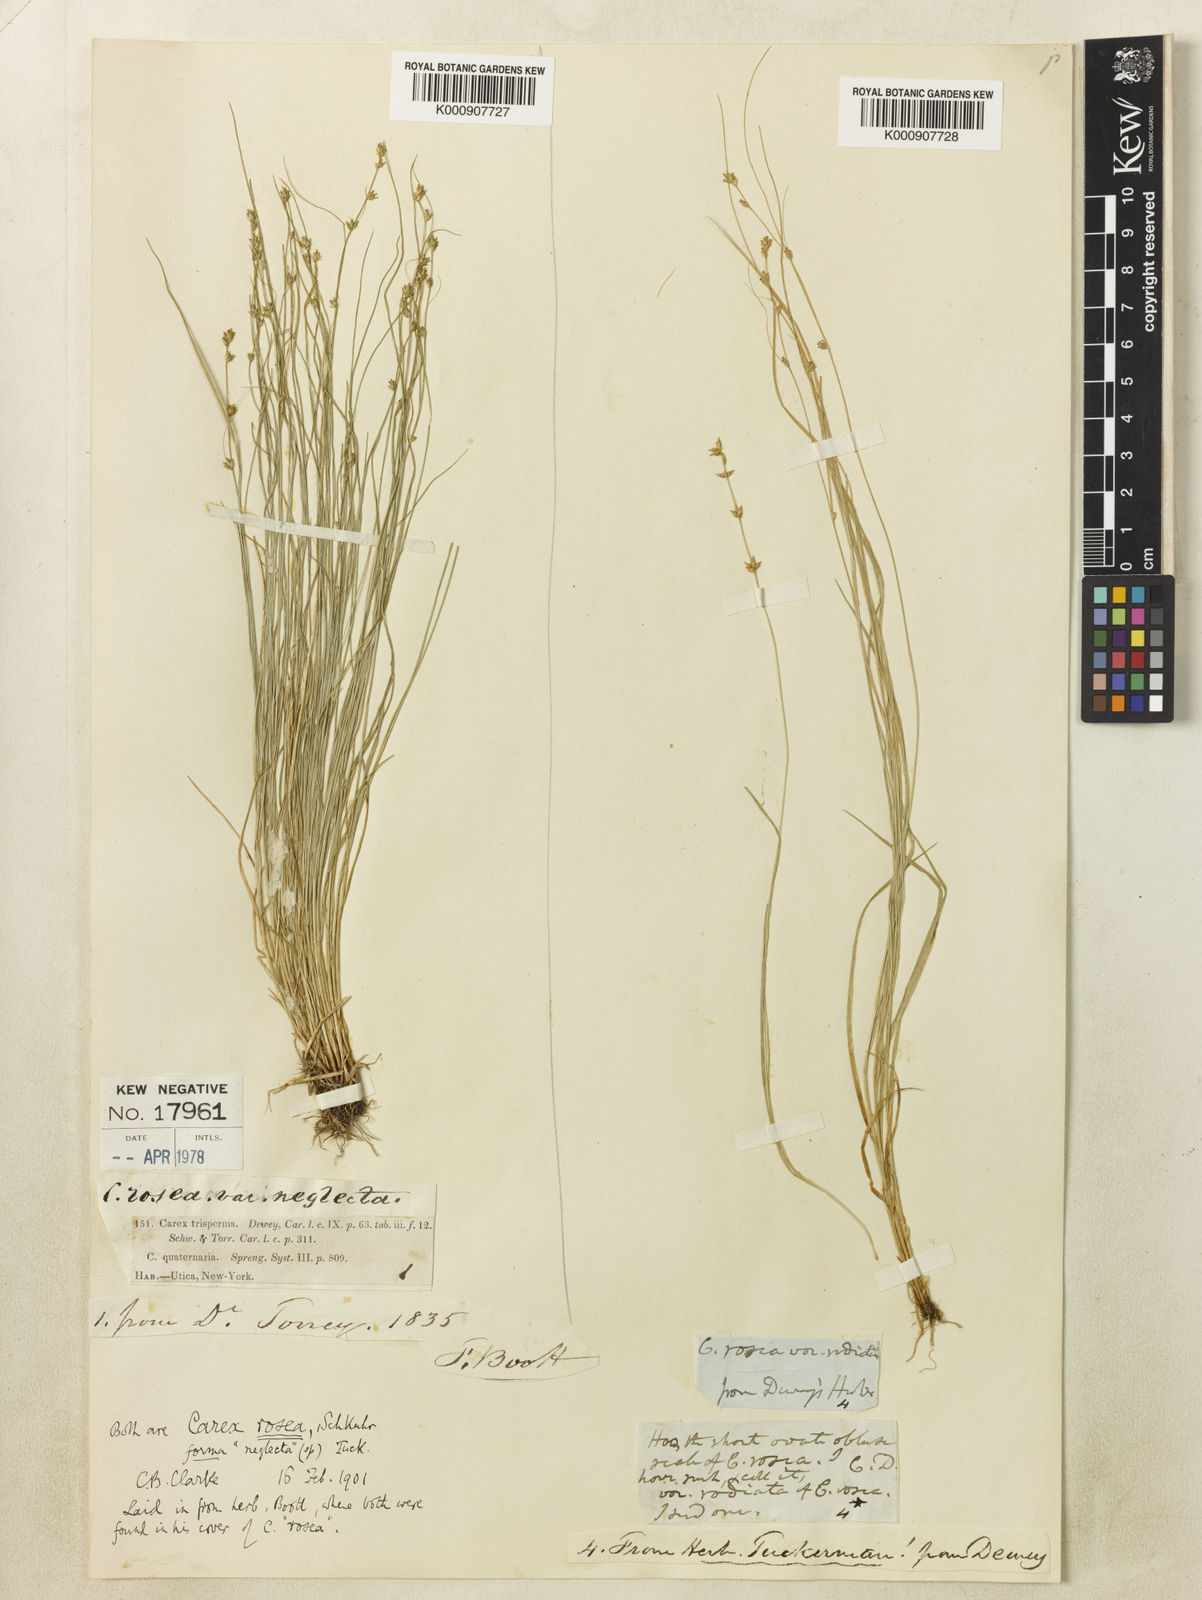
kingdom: Plantae
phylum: Tracheophyta
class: Liliopsida
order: Poales
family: Cyperaceae
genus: Carex
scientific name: Carex radiata
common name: Eastern star sedge
